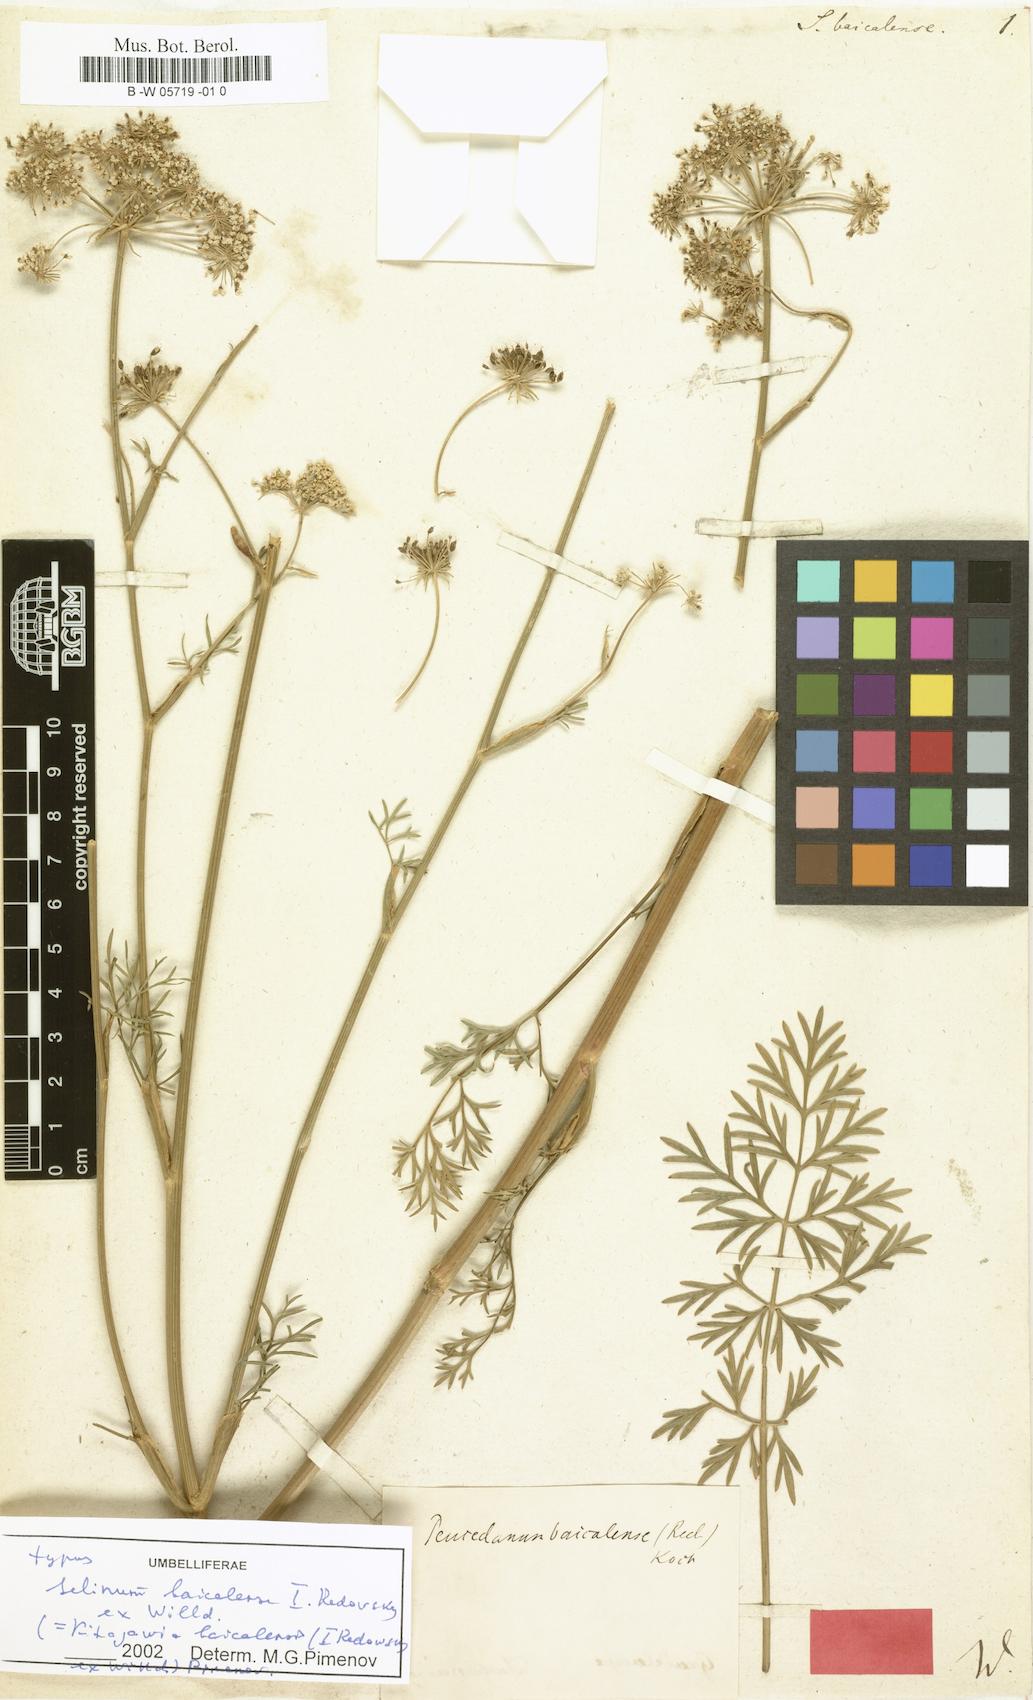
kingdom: Plantae
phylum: Tracheophyta
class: Magnoliopsida
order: Apiales
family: Apiaceae
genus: Kitagawia
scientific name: Kitagawia baicalensis
